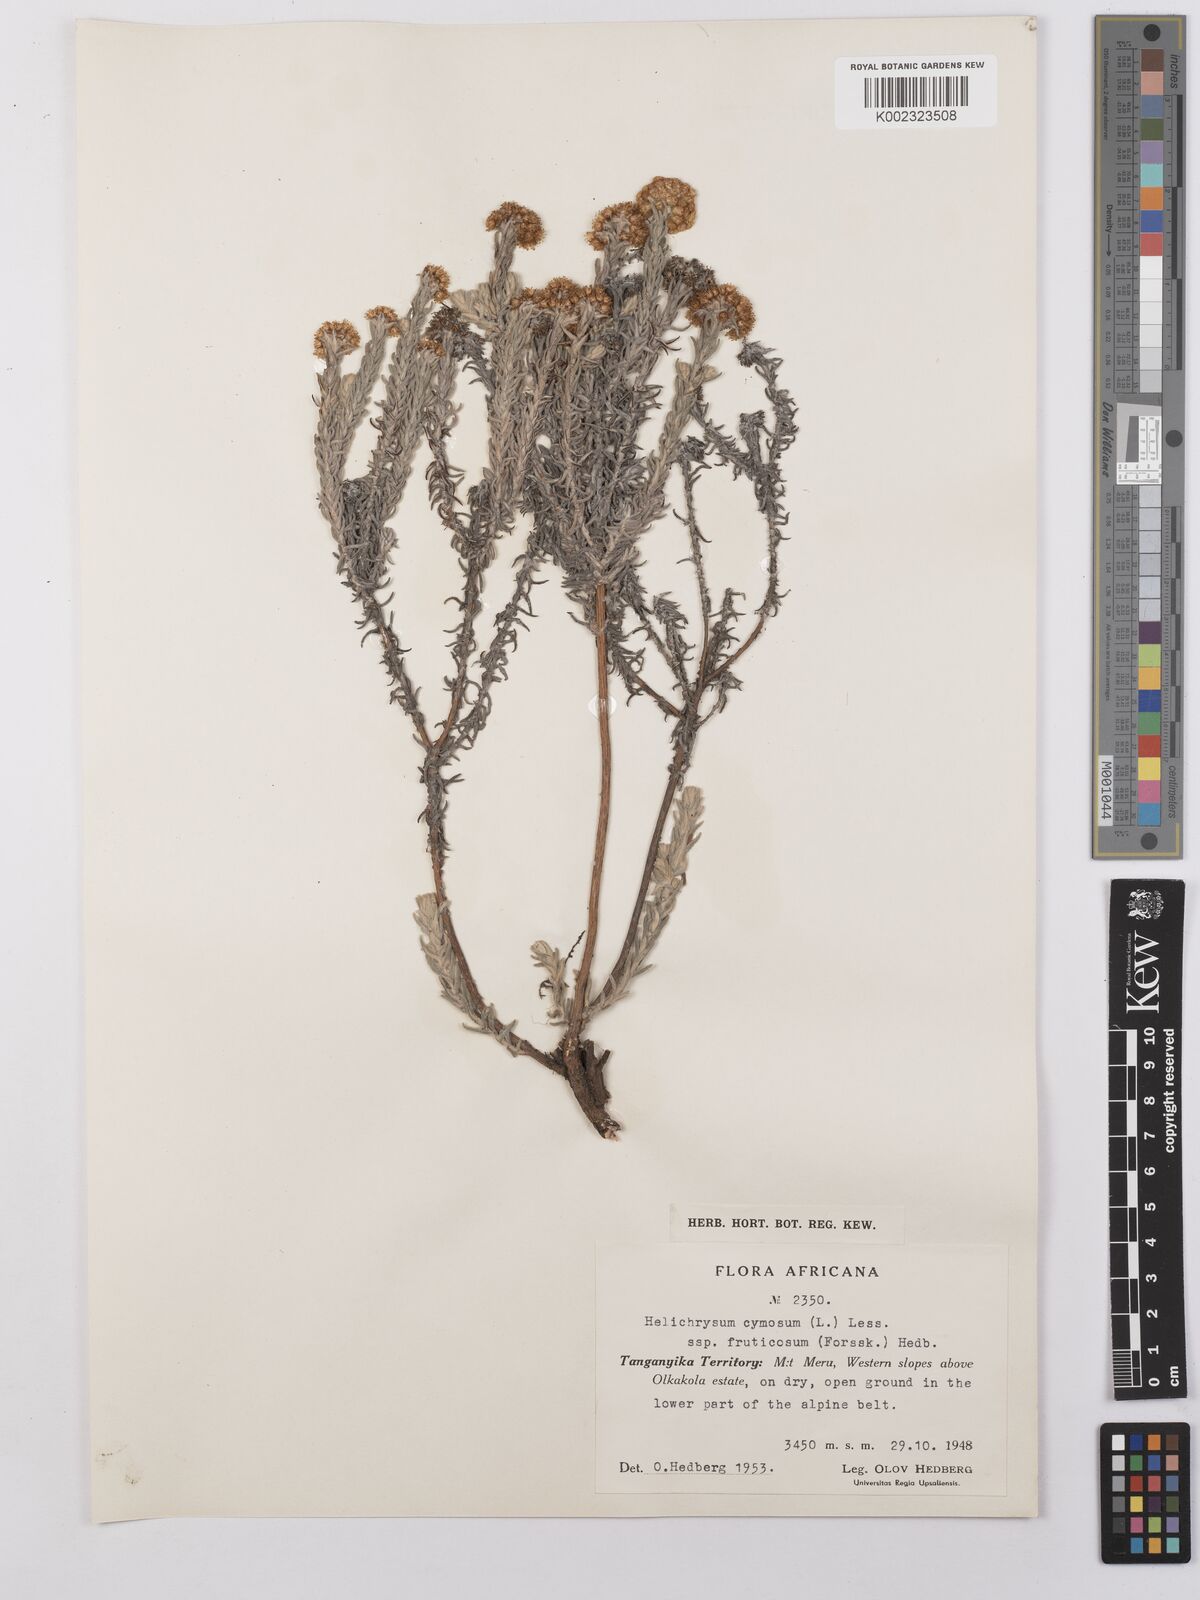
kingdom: Plantae
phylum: Tracheophyta
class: Magnoliopsida
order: Asterales
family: Asteraceae
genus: Helichrysum
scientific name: Helichrysum forskahlii
